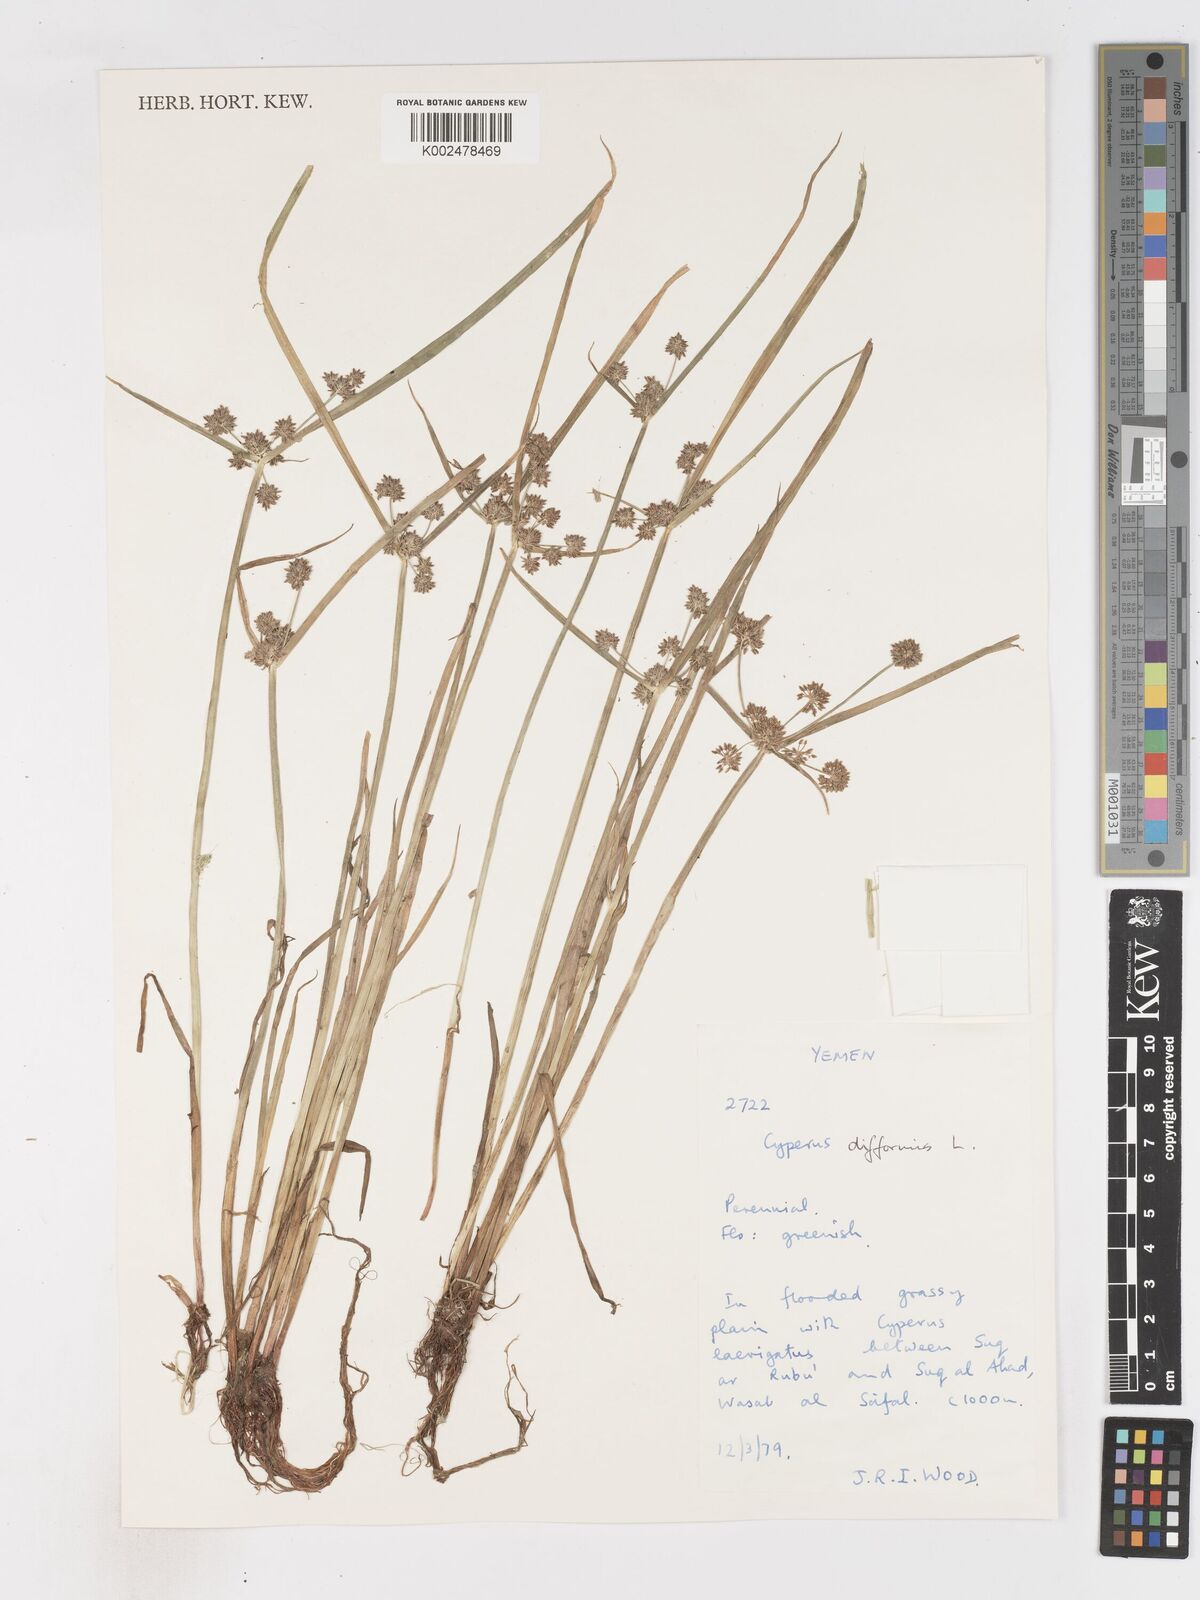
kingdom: Plantae
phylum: Tracheophyta
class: Liliopsida
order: Poales
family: Cyperaceae
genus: Cyperus
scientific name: Cyperus difformis
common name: Variable flatsedge
